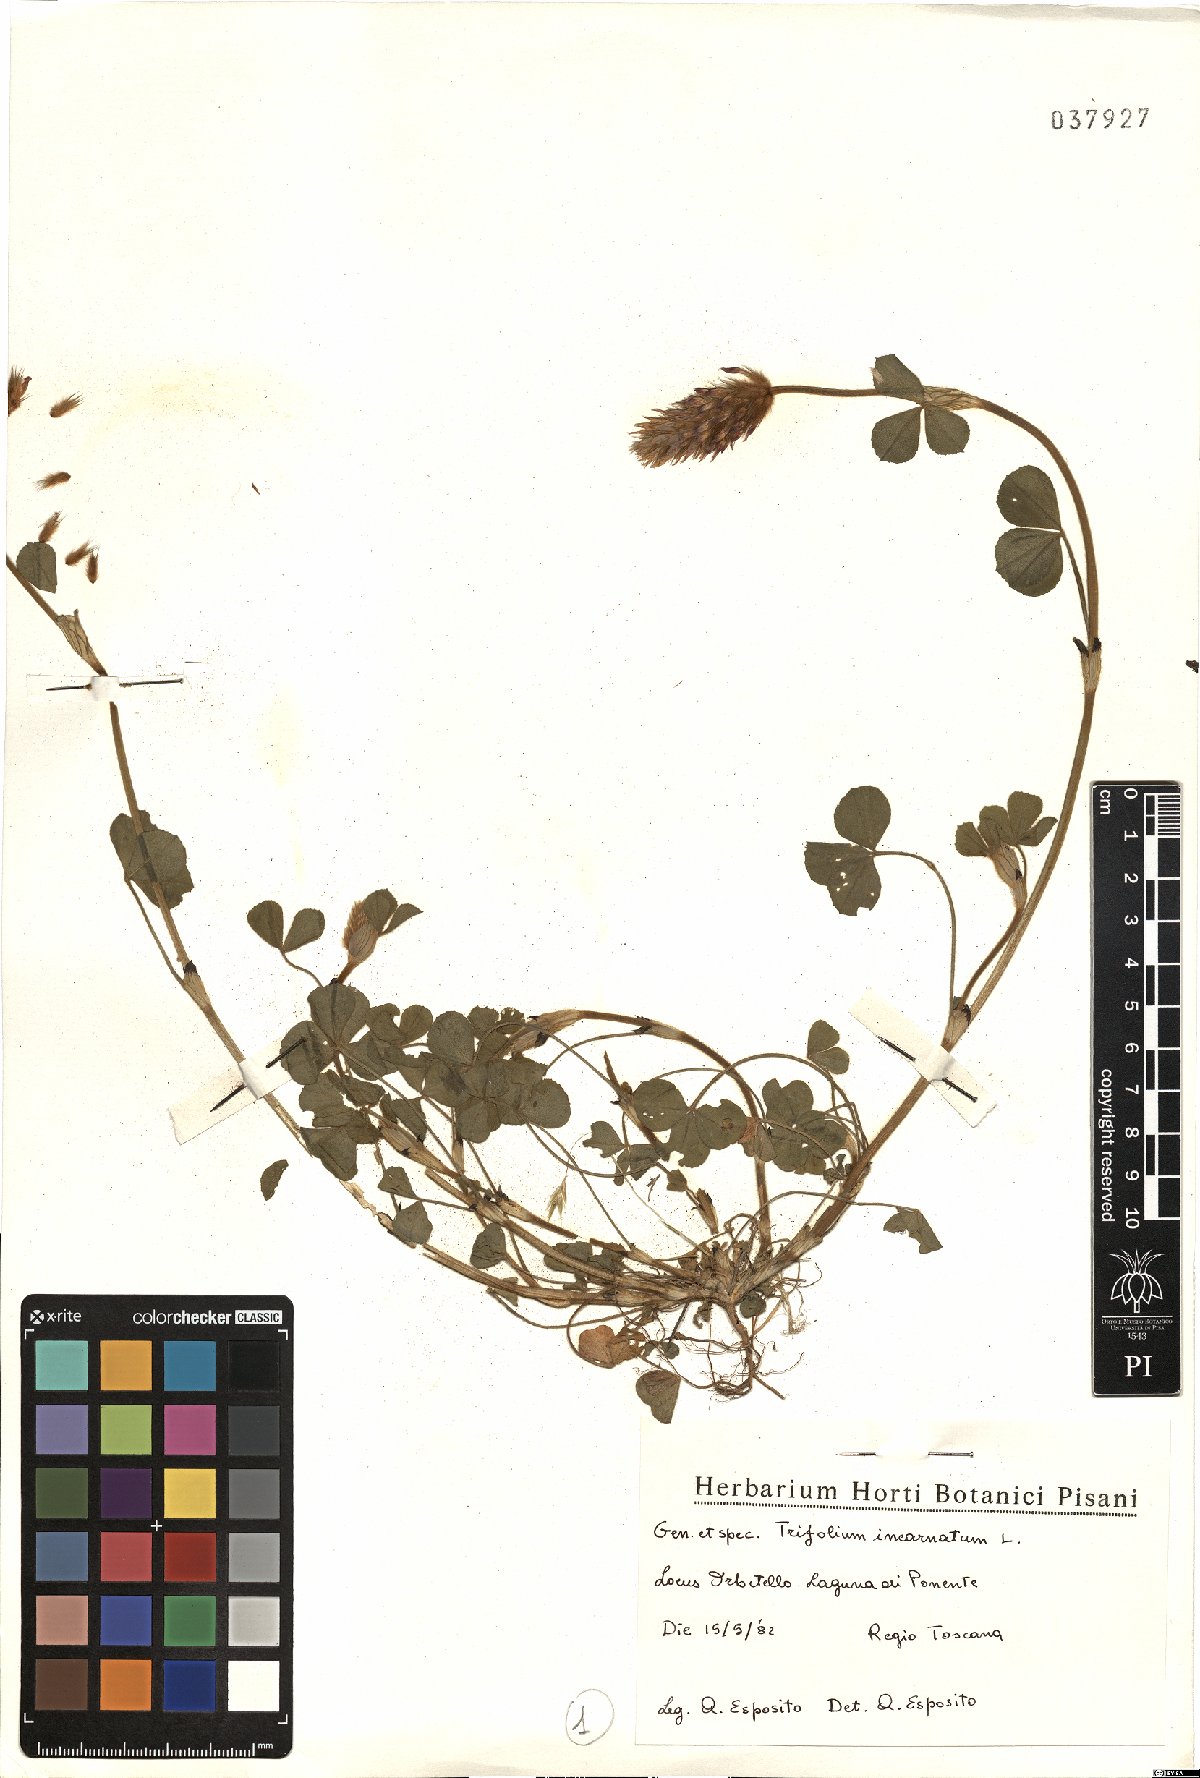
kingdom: Plantae
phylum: Tracheophyta
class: Magnoliopsida
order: Fabales
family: Fabaceae
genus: Trifolium
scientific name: Trifolium incarnatum
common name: Crimson clover
